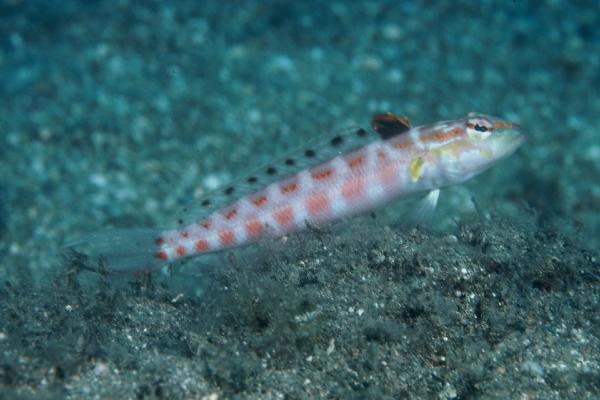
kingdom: Animalia
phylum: Chordata
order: Perciformes
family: Pinguipedidae
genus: Parapercis
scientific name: Parapercis schauinslandii
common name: Redspotted sandperch
